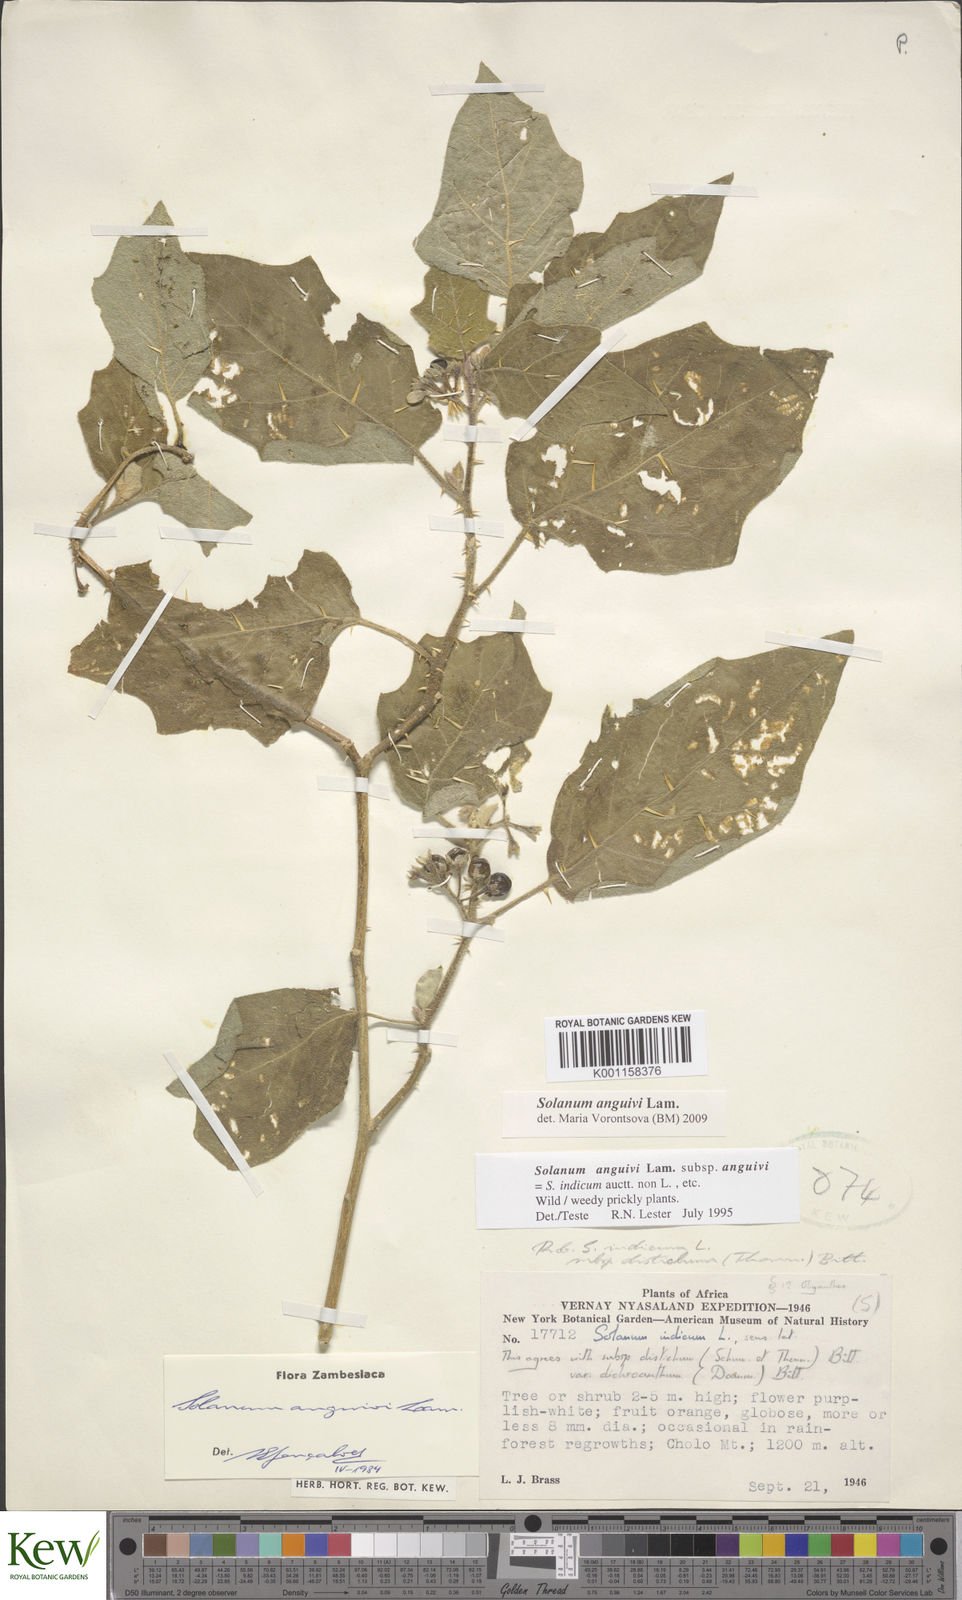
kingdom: Plantae
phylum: Tracheophyta
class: Magnoliopsida
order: Solanales
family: Solanaceae
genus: Solanum
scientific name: Solanum anguivi
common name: Forest bitterberry
